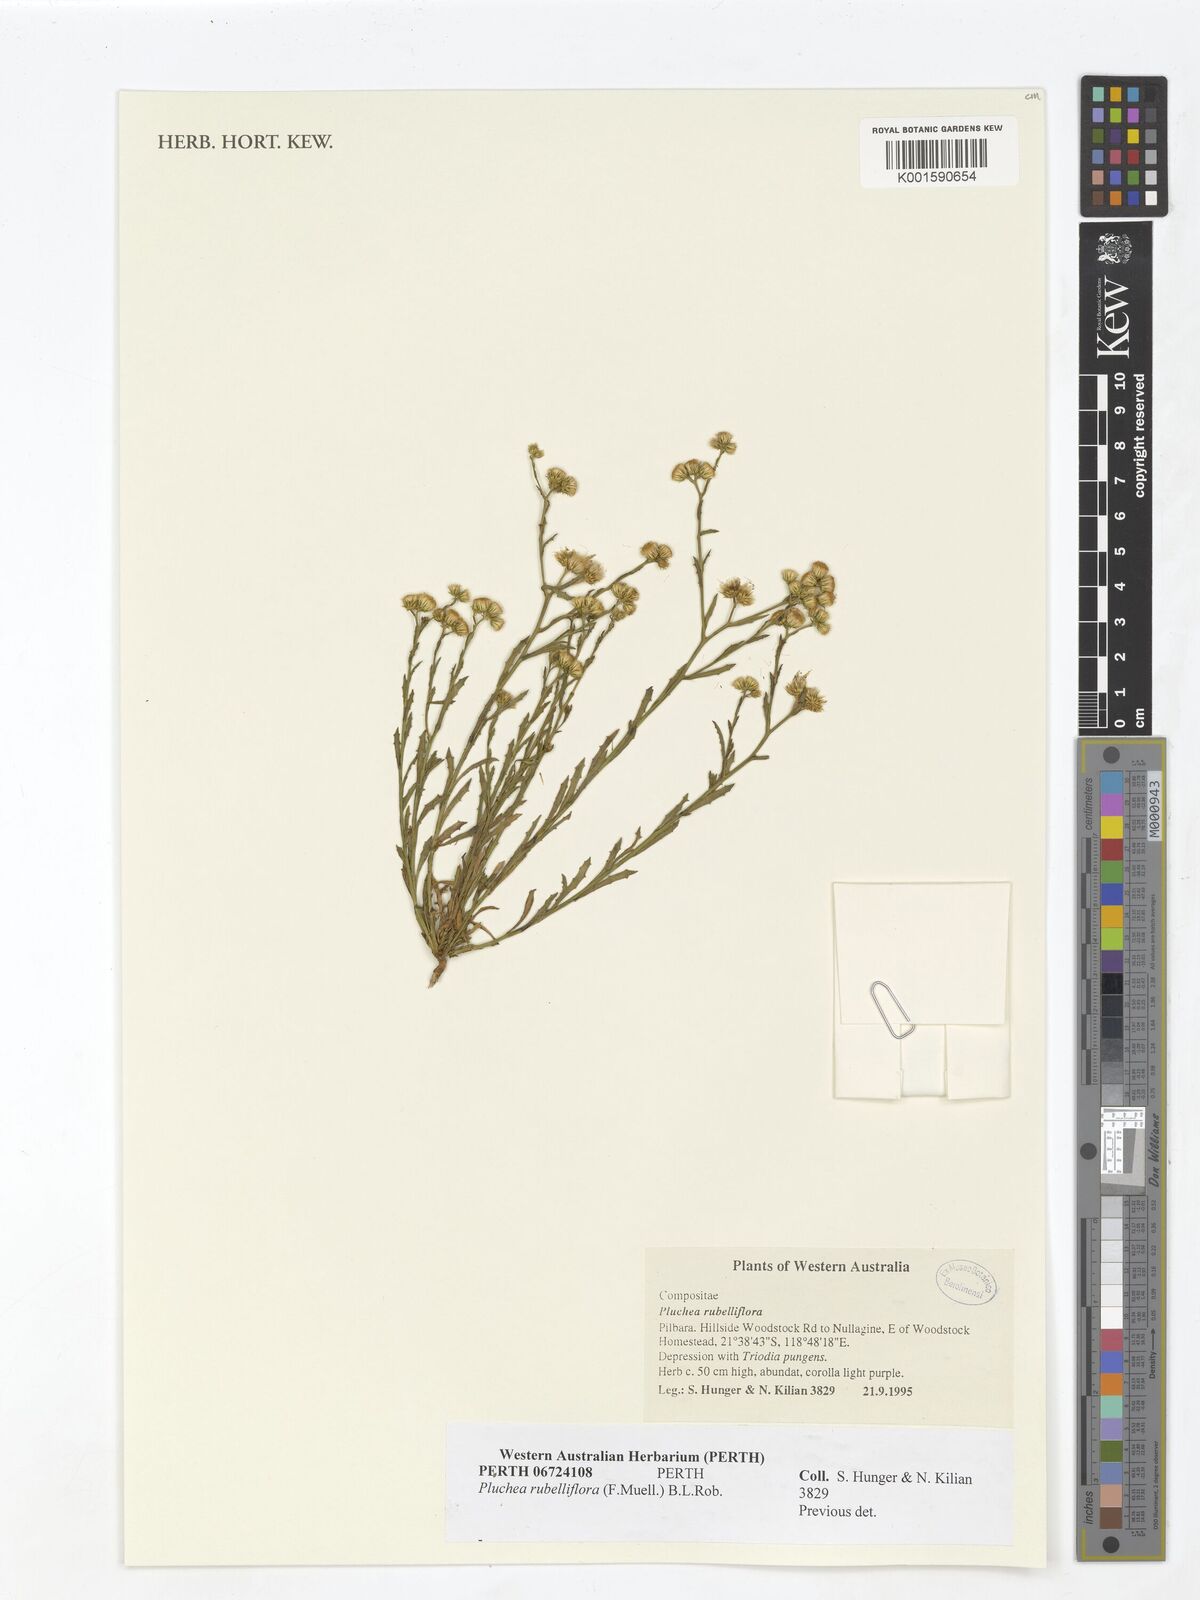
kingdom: Plantae
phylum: Tracheophyta
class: Magnoliopsida
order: Asterales
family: Asteraceae
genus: Pluchea
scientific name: Pluchea rubelliflora
